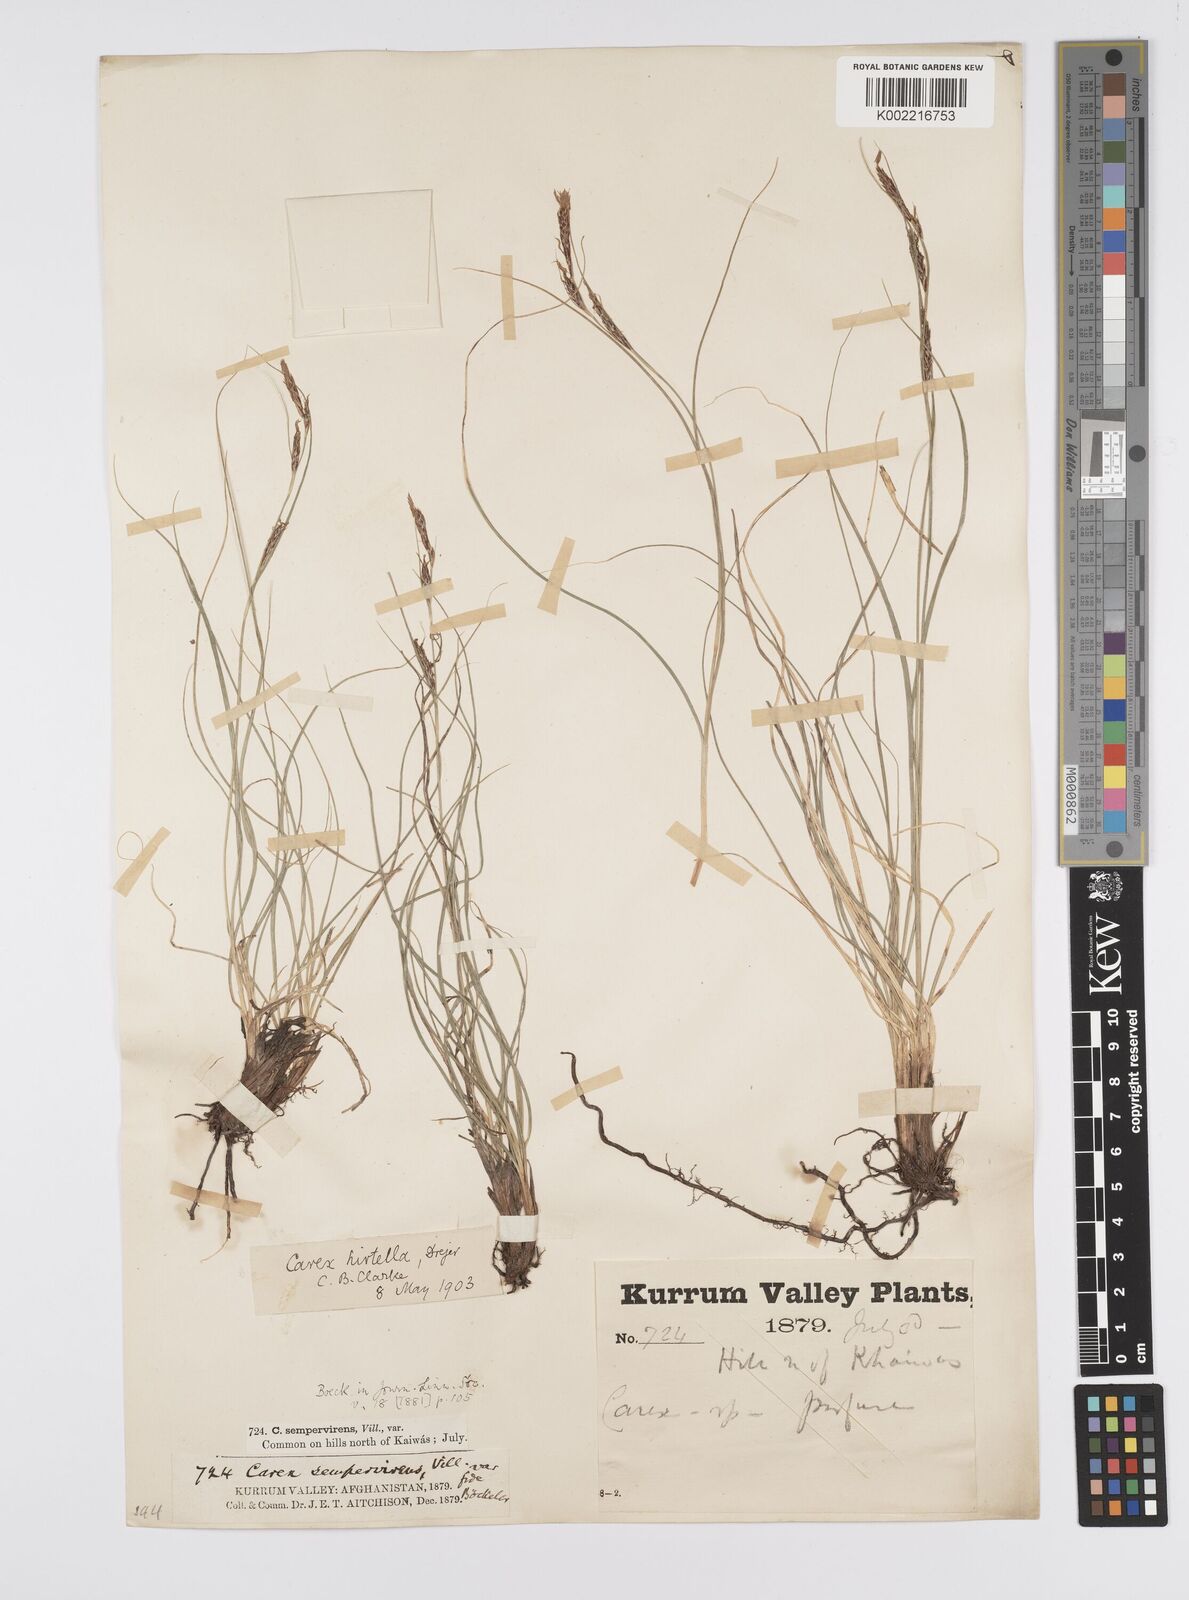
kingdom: Plantae
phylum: Tracheophyta
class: Liliopsida
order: Poales
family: Cyperaceae
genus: Carex
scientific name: Carex plectobasis
